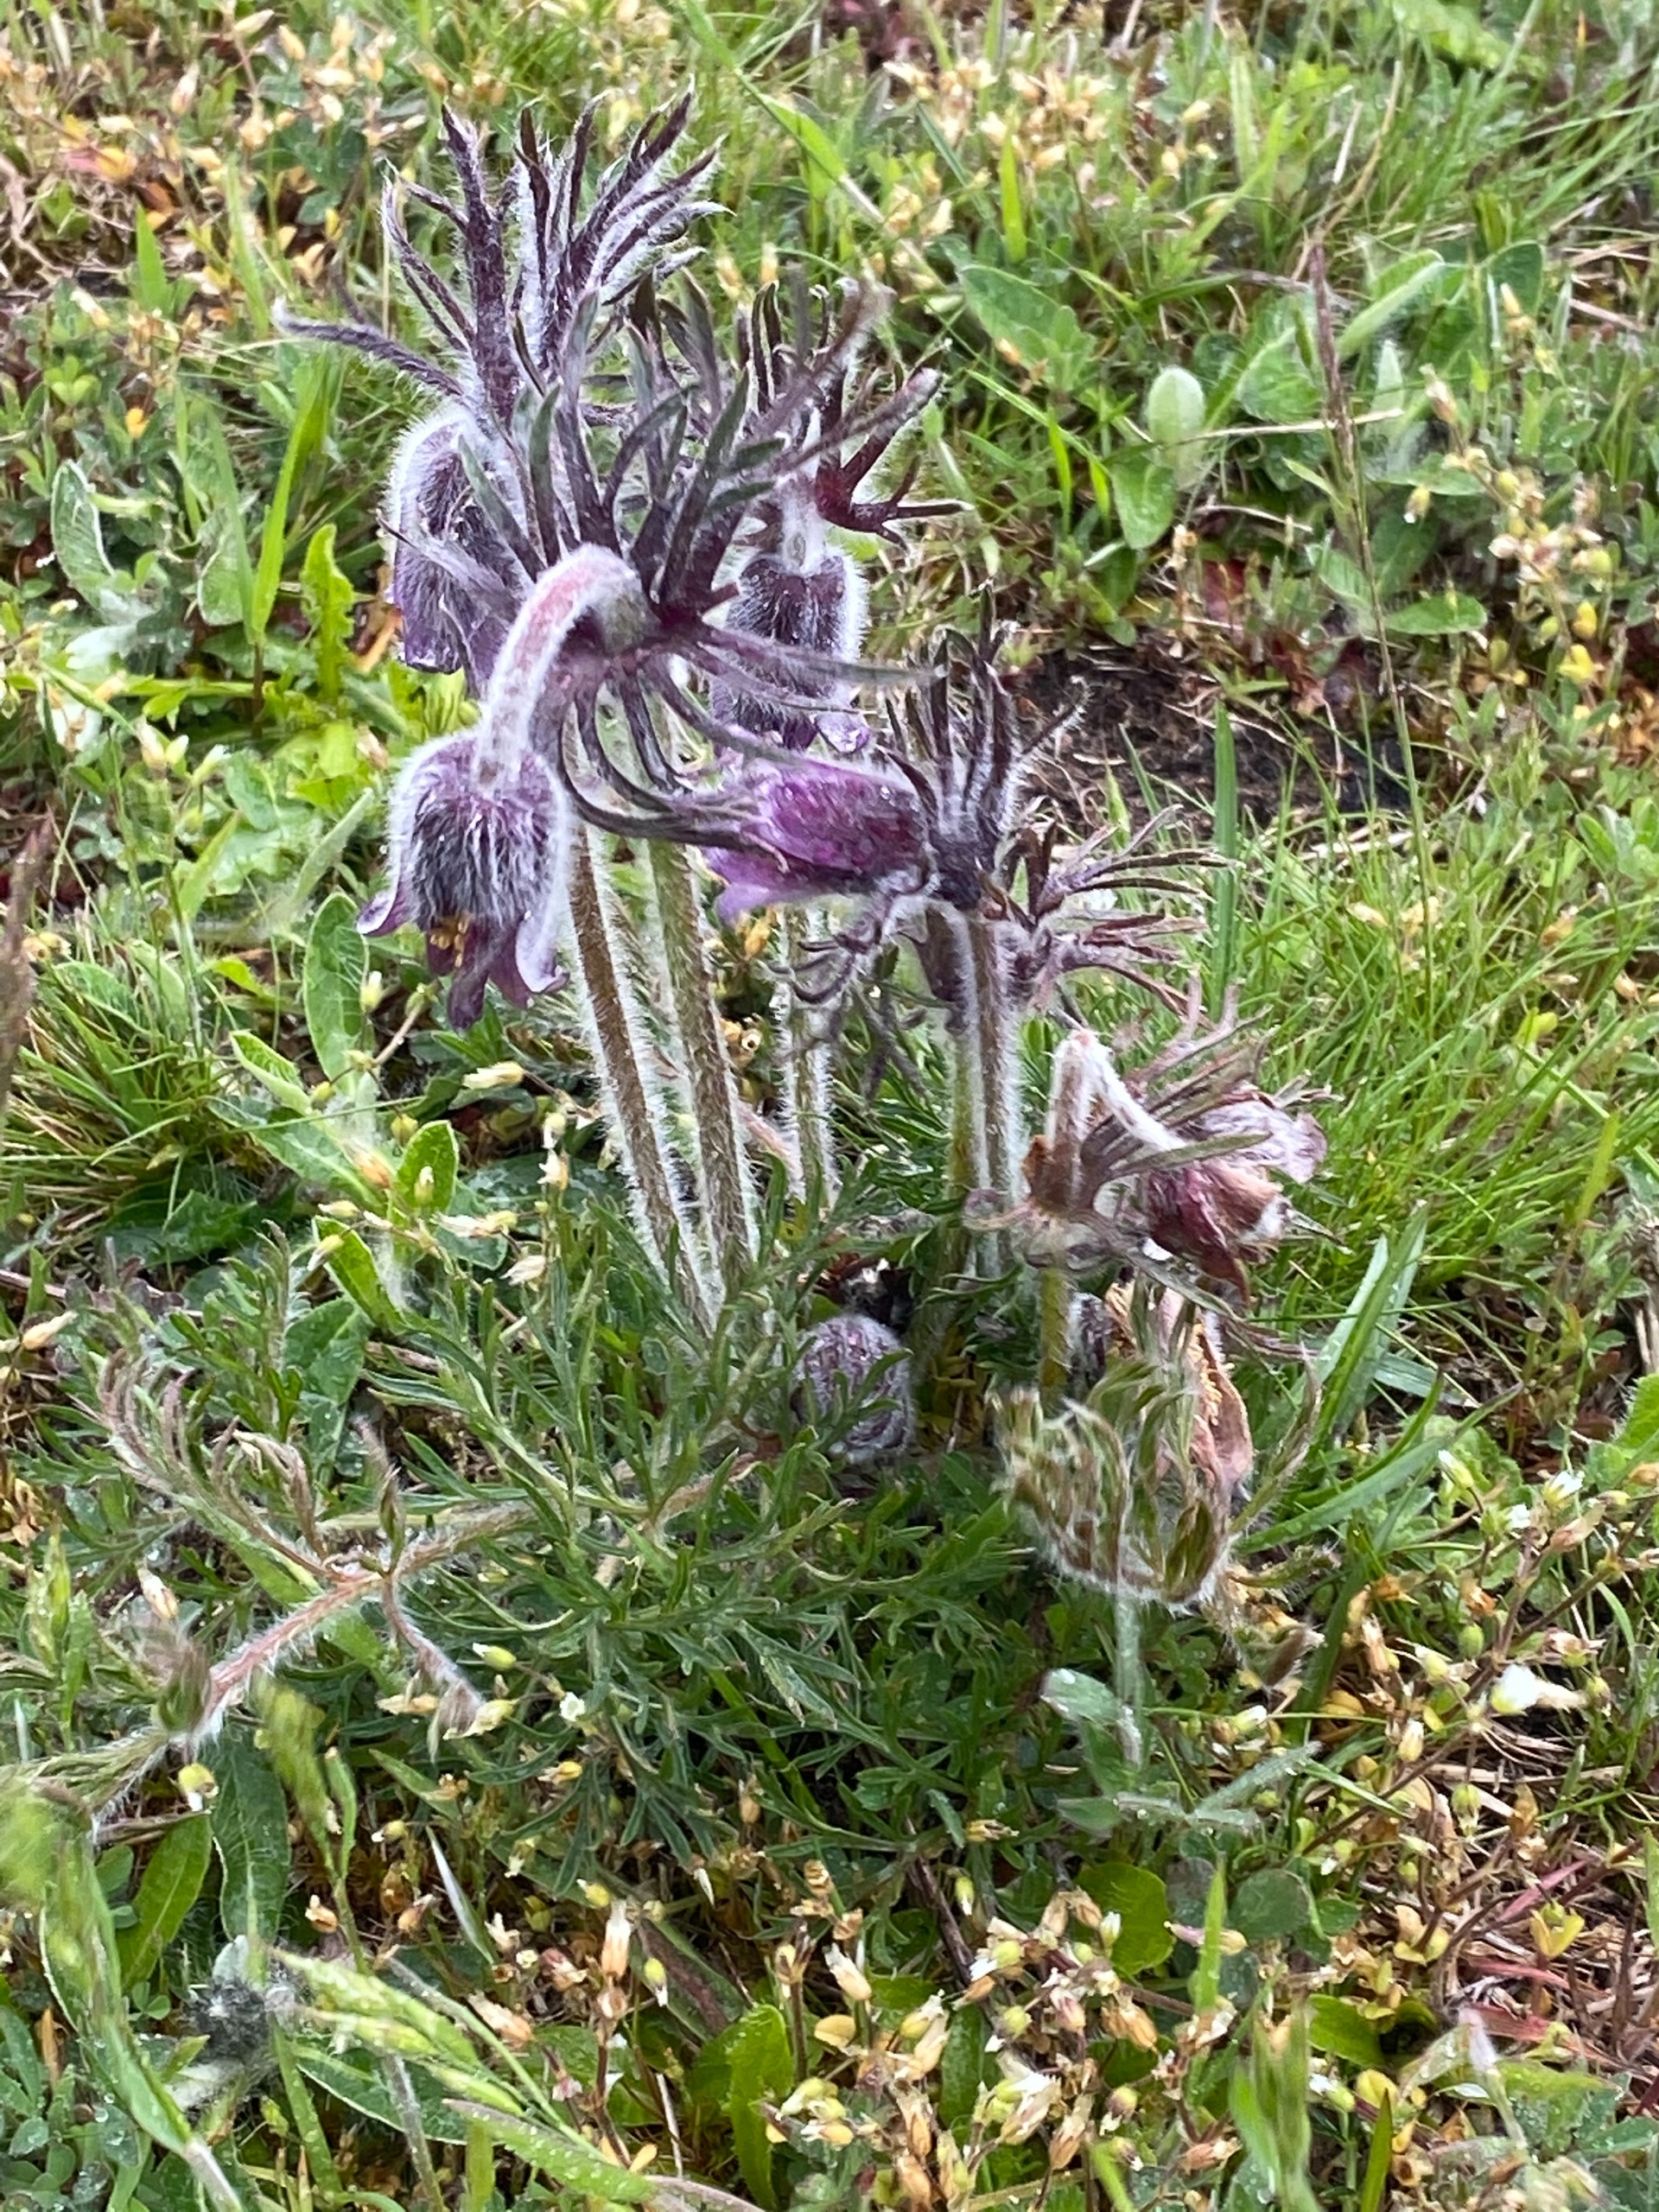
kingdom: Plantae
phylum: Tracheophyta
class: Magnoliopsida
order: Ranunculales
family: Ranunculaceae
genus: Pulsatilla
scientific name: Pulsatilla pratensis
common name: Nikkende kobjælde
